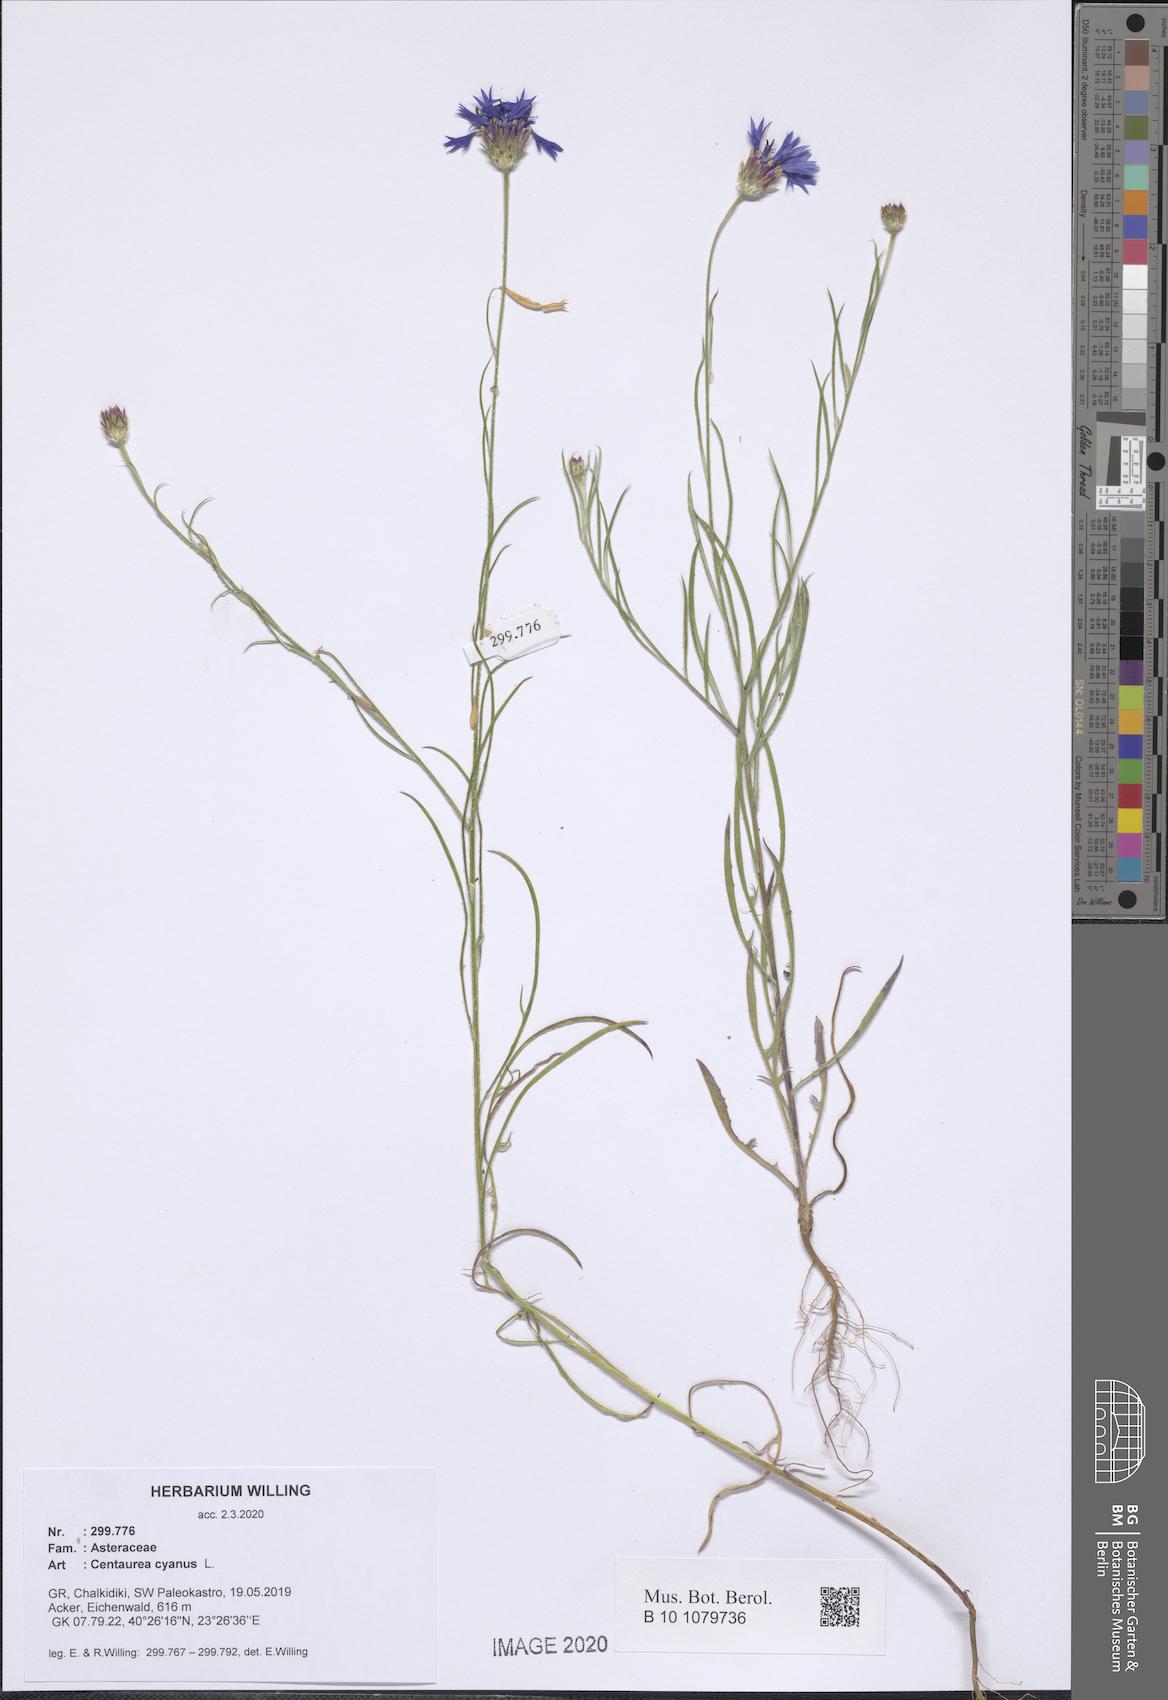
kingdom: Plantae
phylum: Tracheophyta
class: Magnoliopsida
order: Asterales
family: Asteraceae
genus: Centaurea
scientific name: Centaurea cyanus
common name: Cornflower
